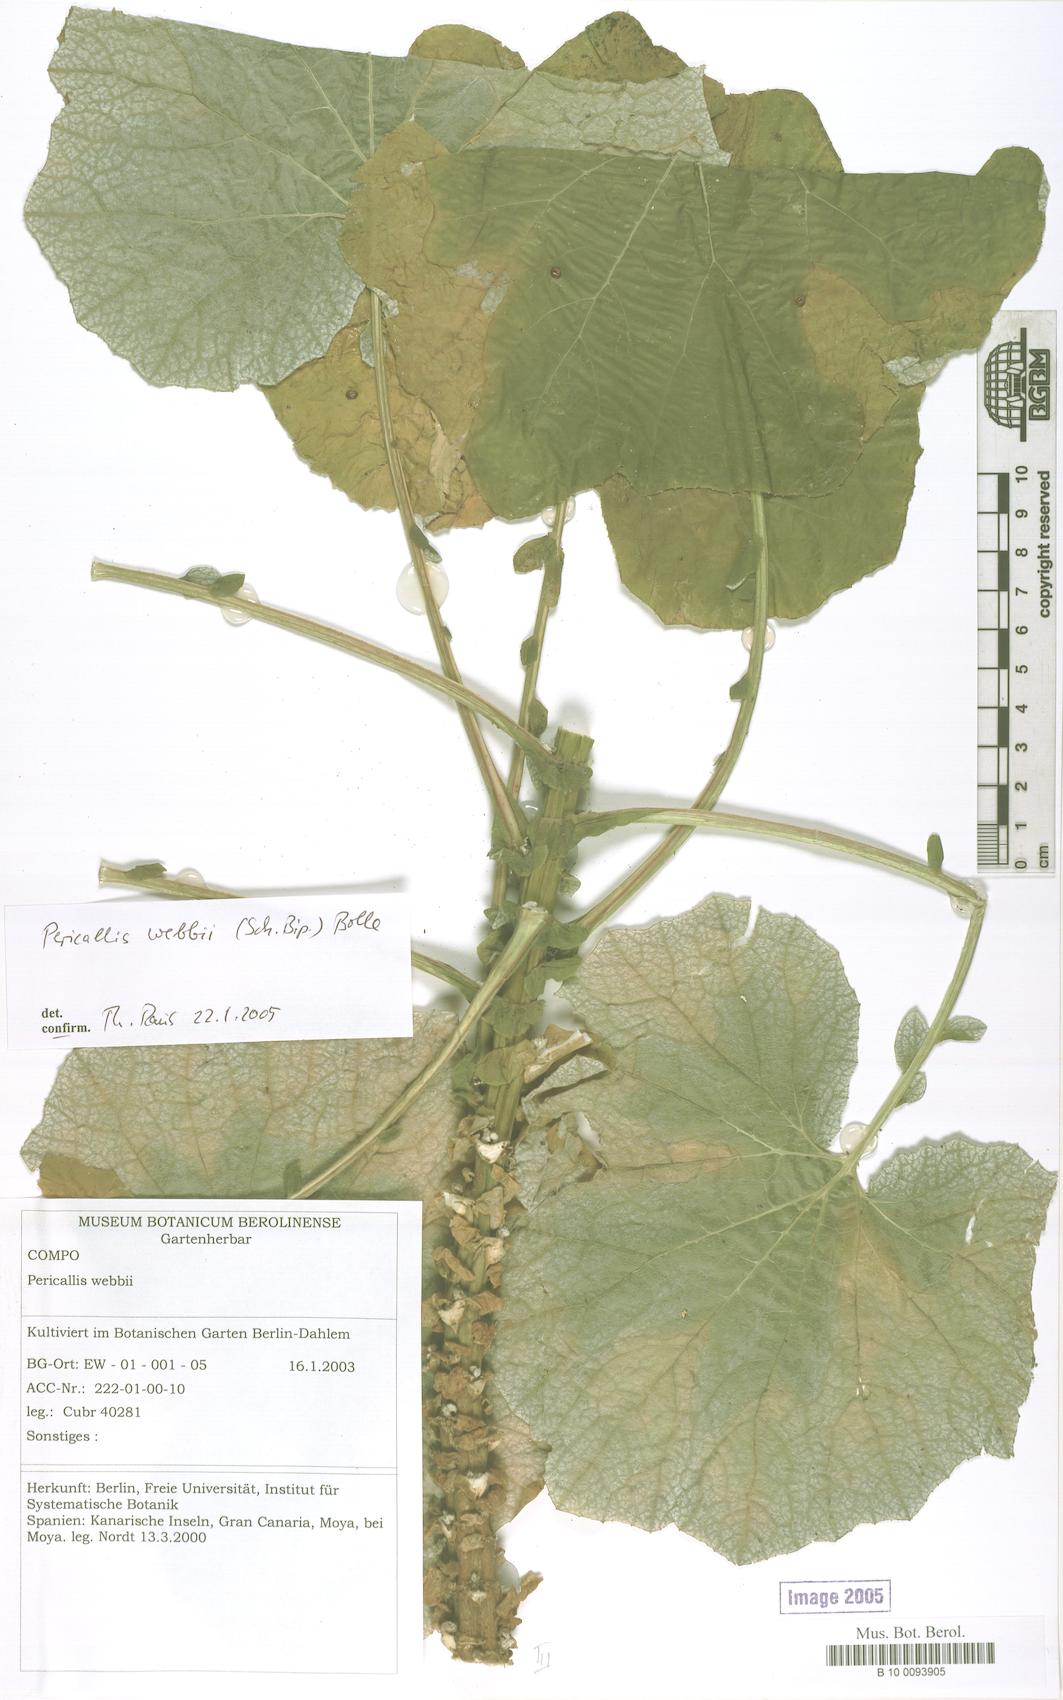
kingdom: Plantae
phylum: Tracheophyta
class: Magnoliopsida
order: Asterales
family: Asteraceae
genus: Pericallis
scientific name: Pericallis webbii
